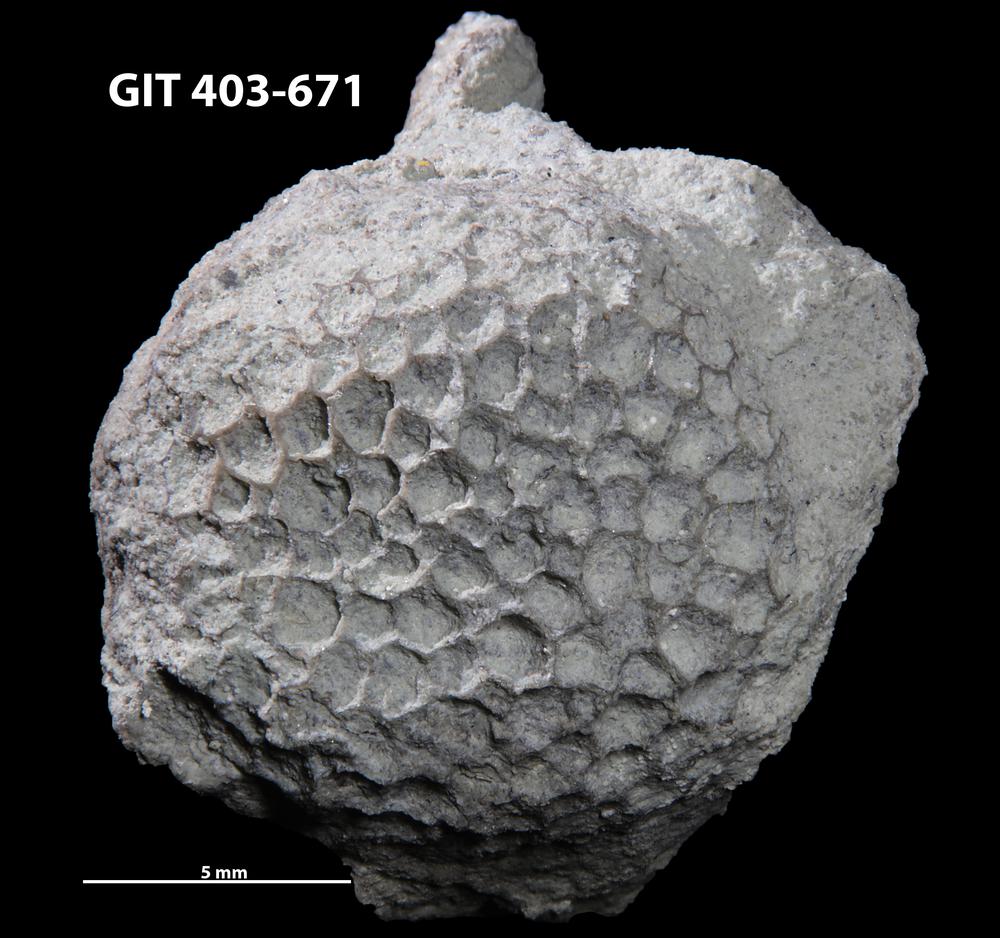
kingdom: Animalia
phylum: Cnidaria
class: Anthozoa
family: Favositidae
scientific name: Favositidae
